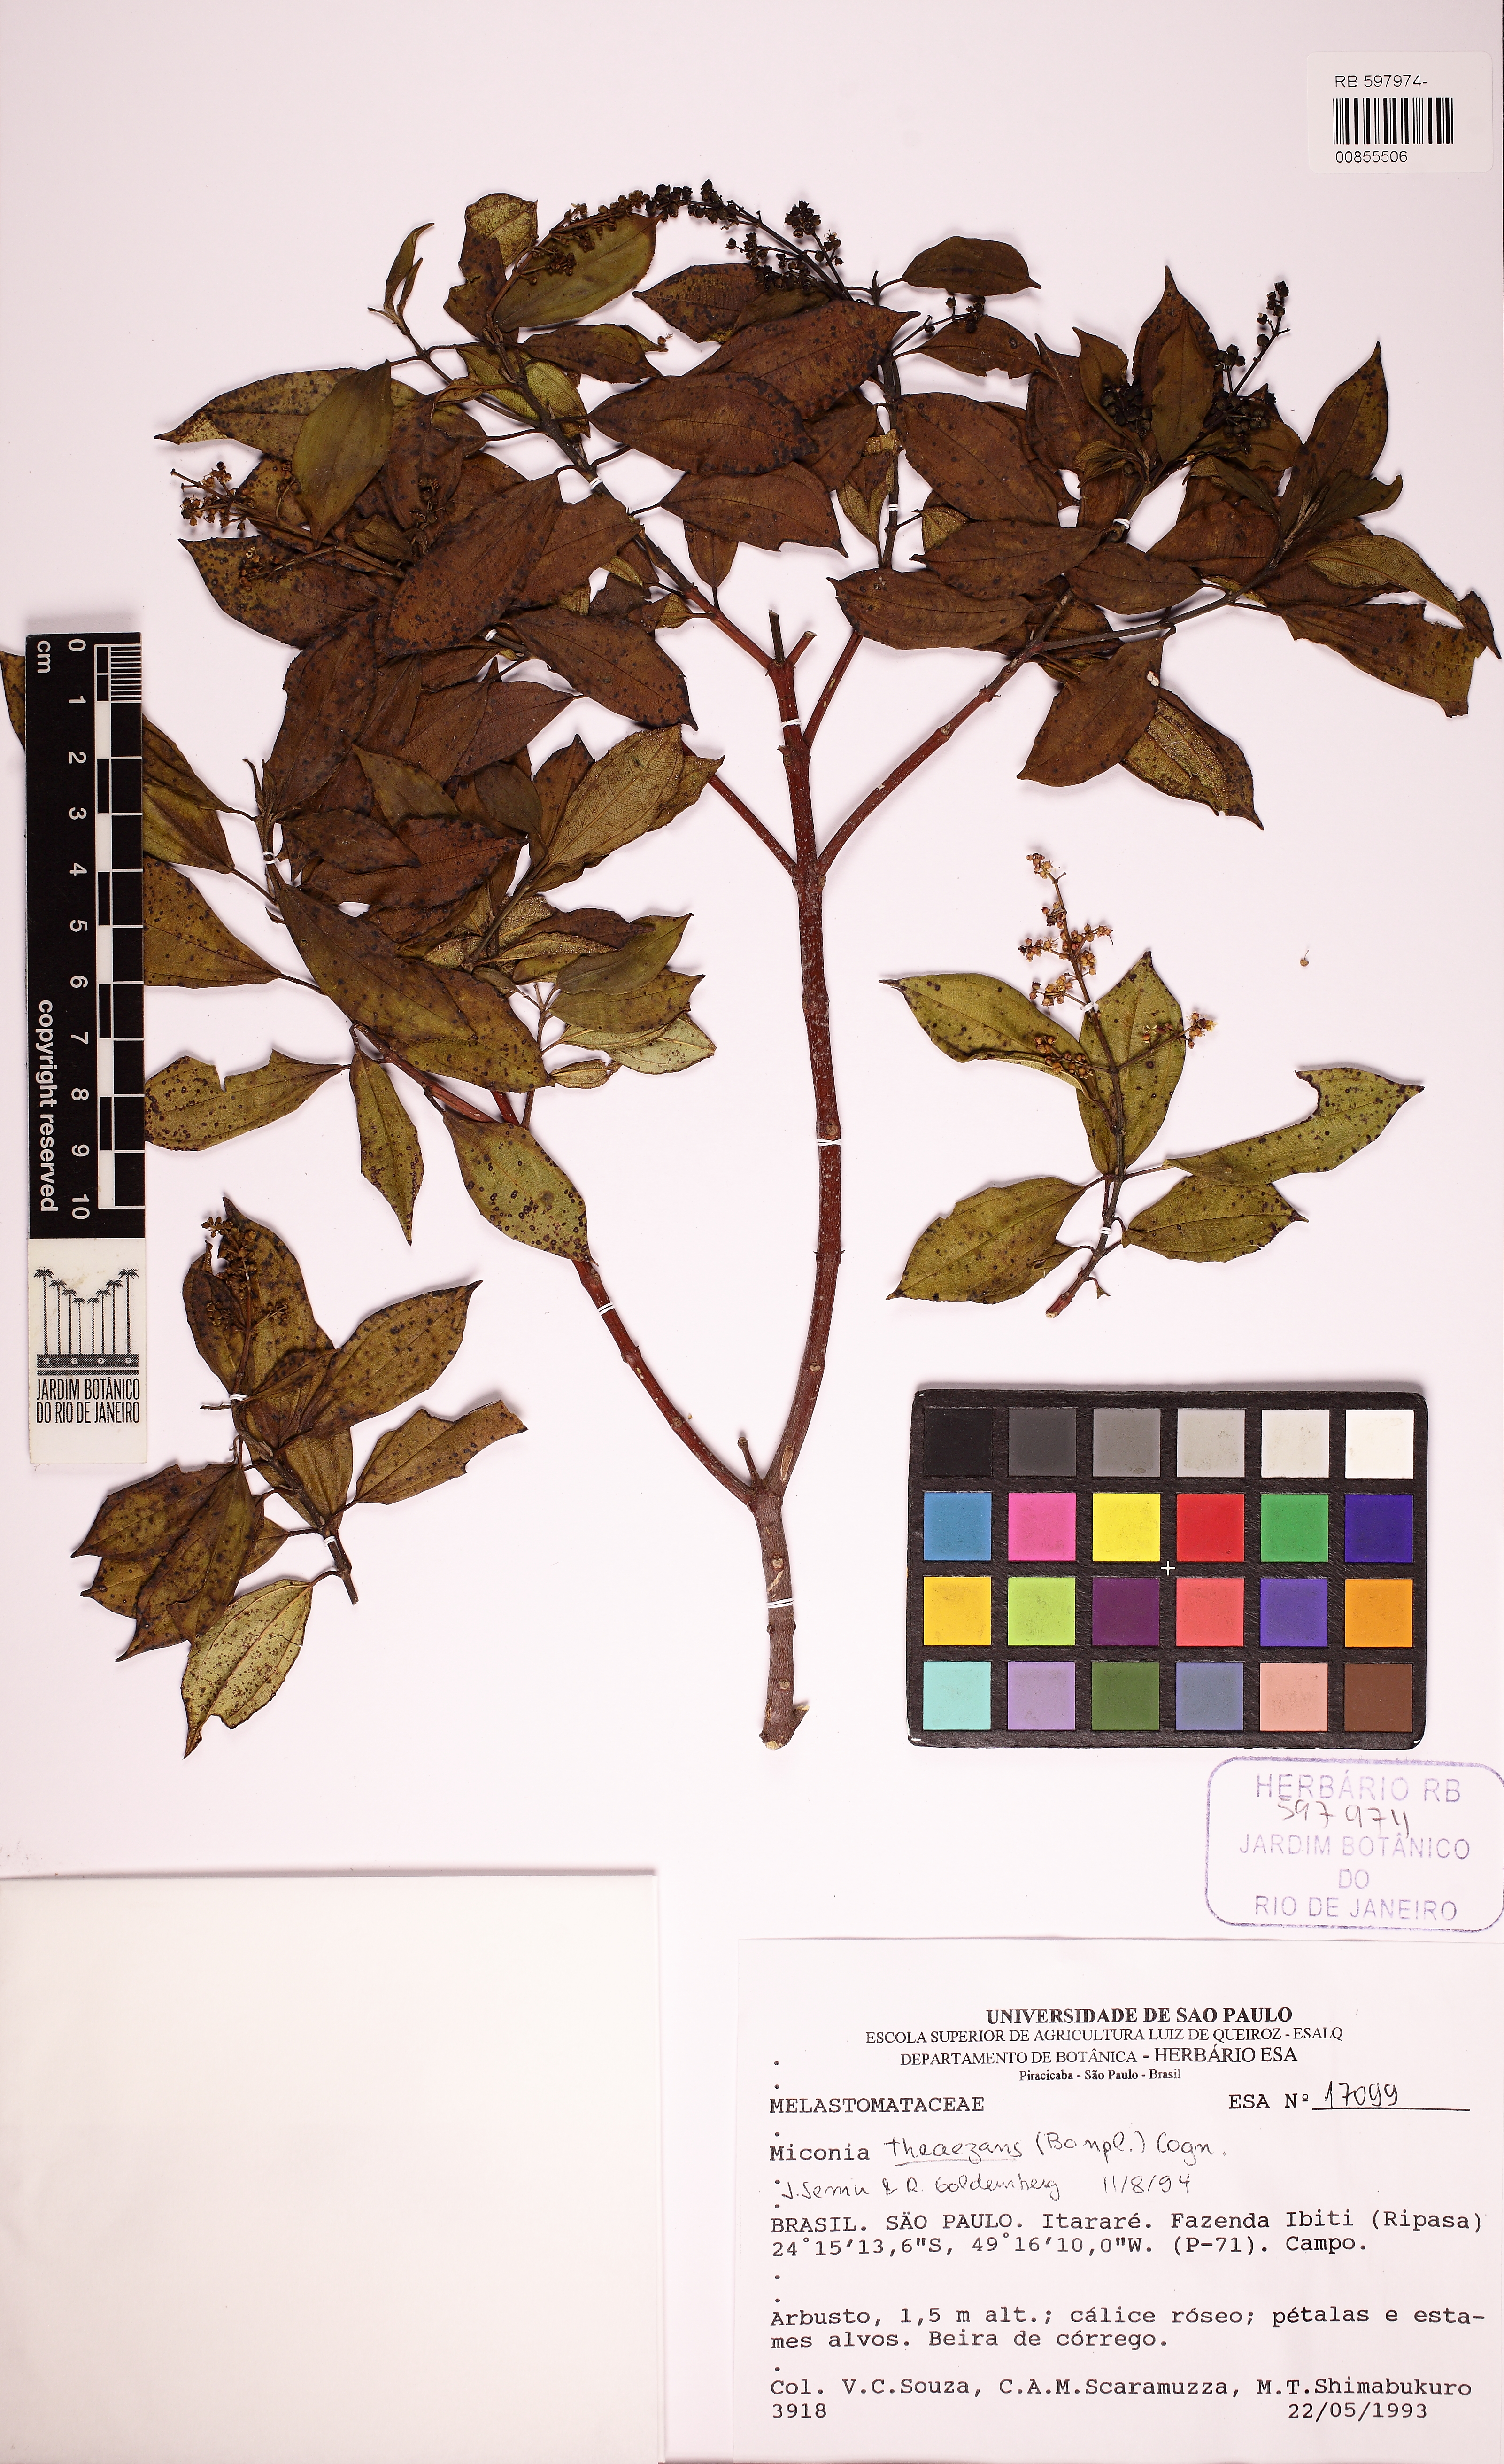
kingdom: Plantae
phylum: Tracheophyta
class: Magnoliopsida
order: Myrtales
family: Melastomataceae
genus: Miconia
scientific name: Miconia theizans
